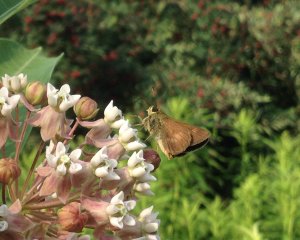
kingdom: Animalia
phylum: Arthropoda
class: Insecta
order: Lepidoptera
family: Hesperiidae
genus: Polites
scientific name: Polites egeremet
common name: Northern Broken-Dash
